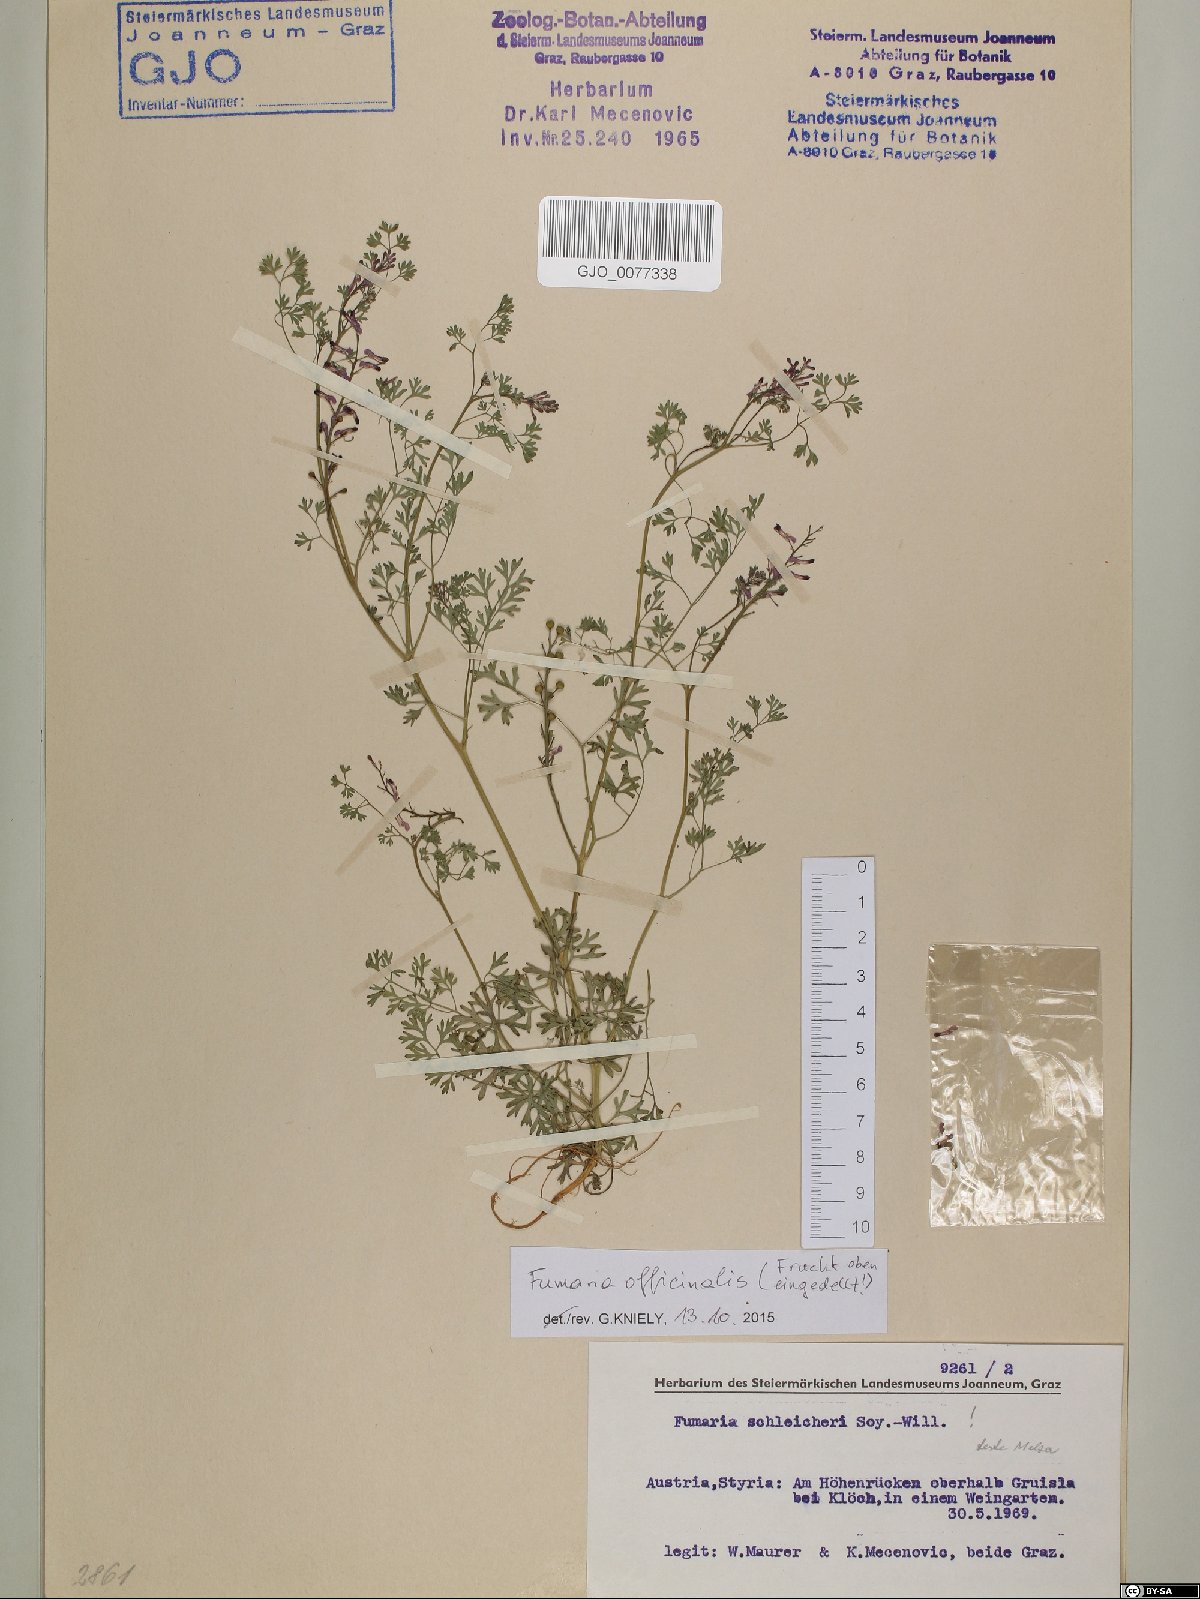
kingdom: Plantae
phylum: Tracheophyta
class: Magnoliopsida
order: Ranunculales
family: Papaveraceae
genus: Fumaria
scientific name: Fumaria officinalis
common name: Common fumitory
